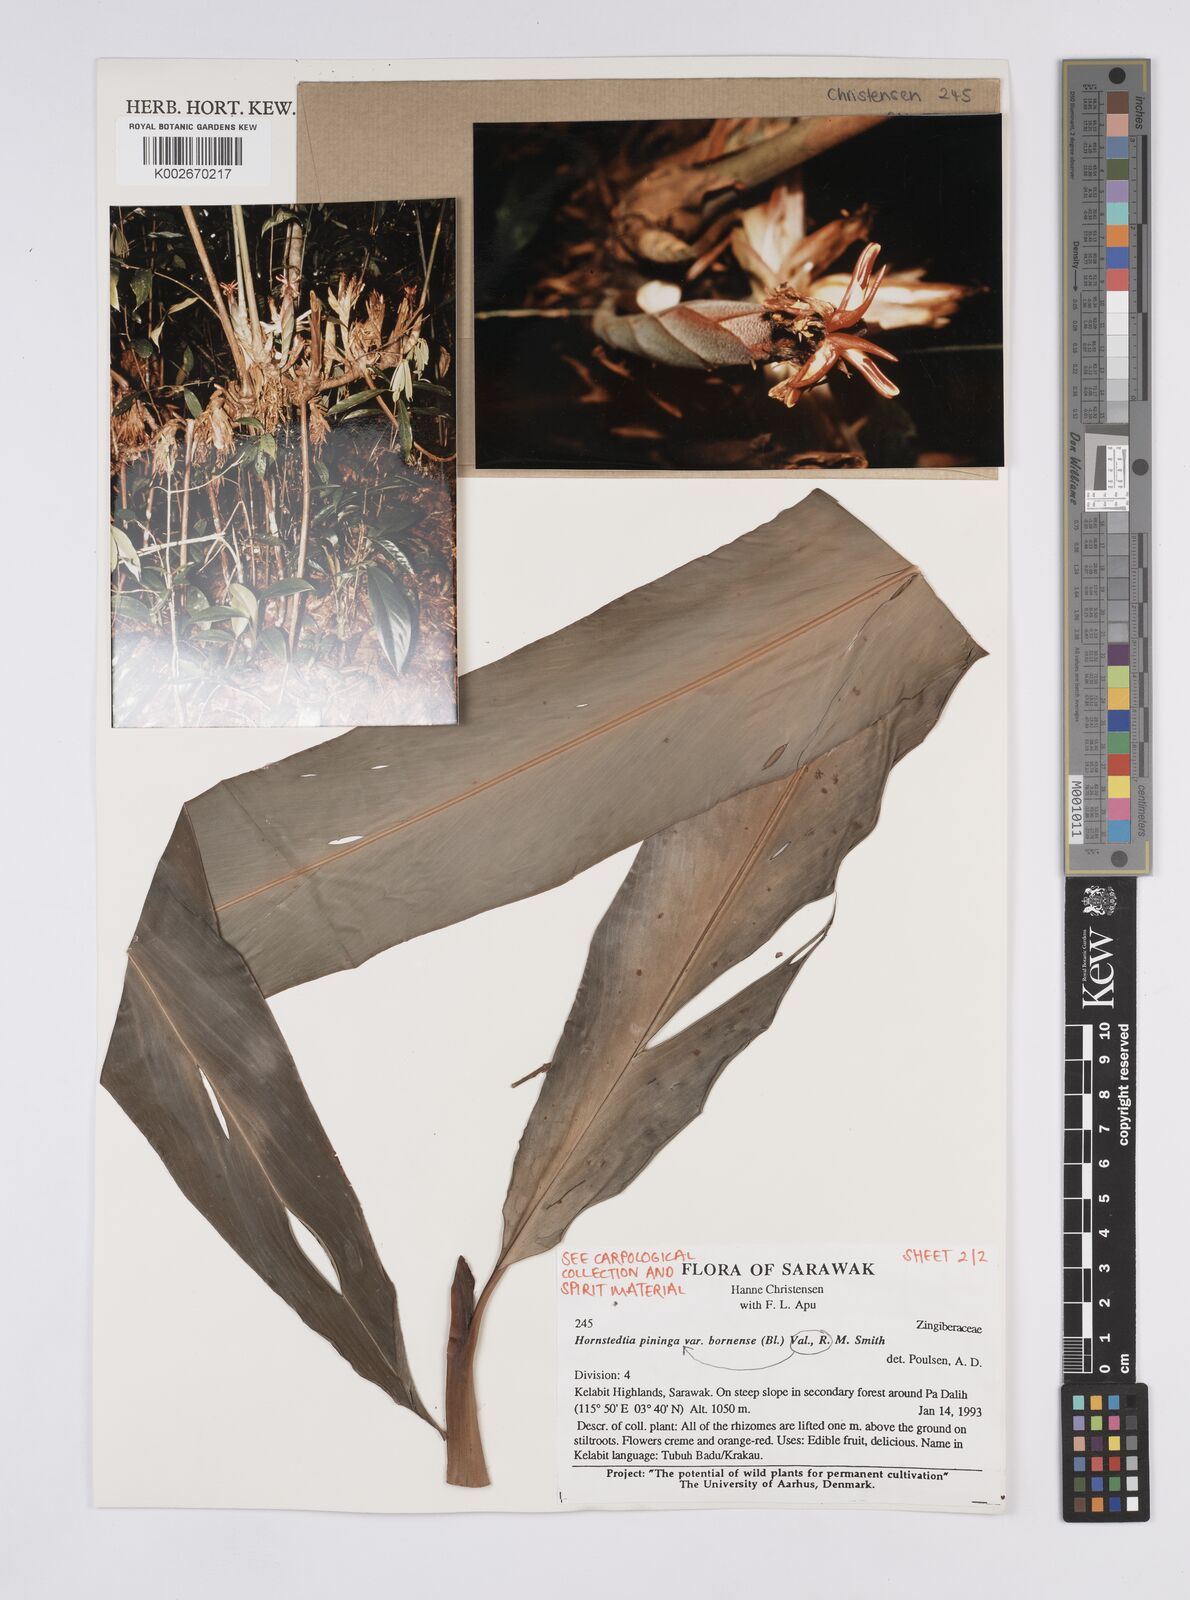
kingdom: Plantae
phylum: Tracheophyta
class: Liliopsida
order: Zingiberales
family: Zingiberaceae
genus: Hornstedtia
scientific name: Hornstedtia pininga
